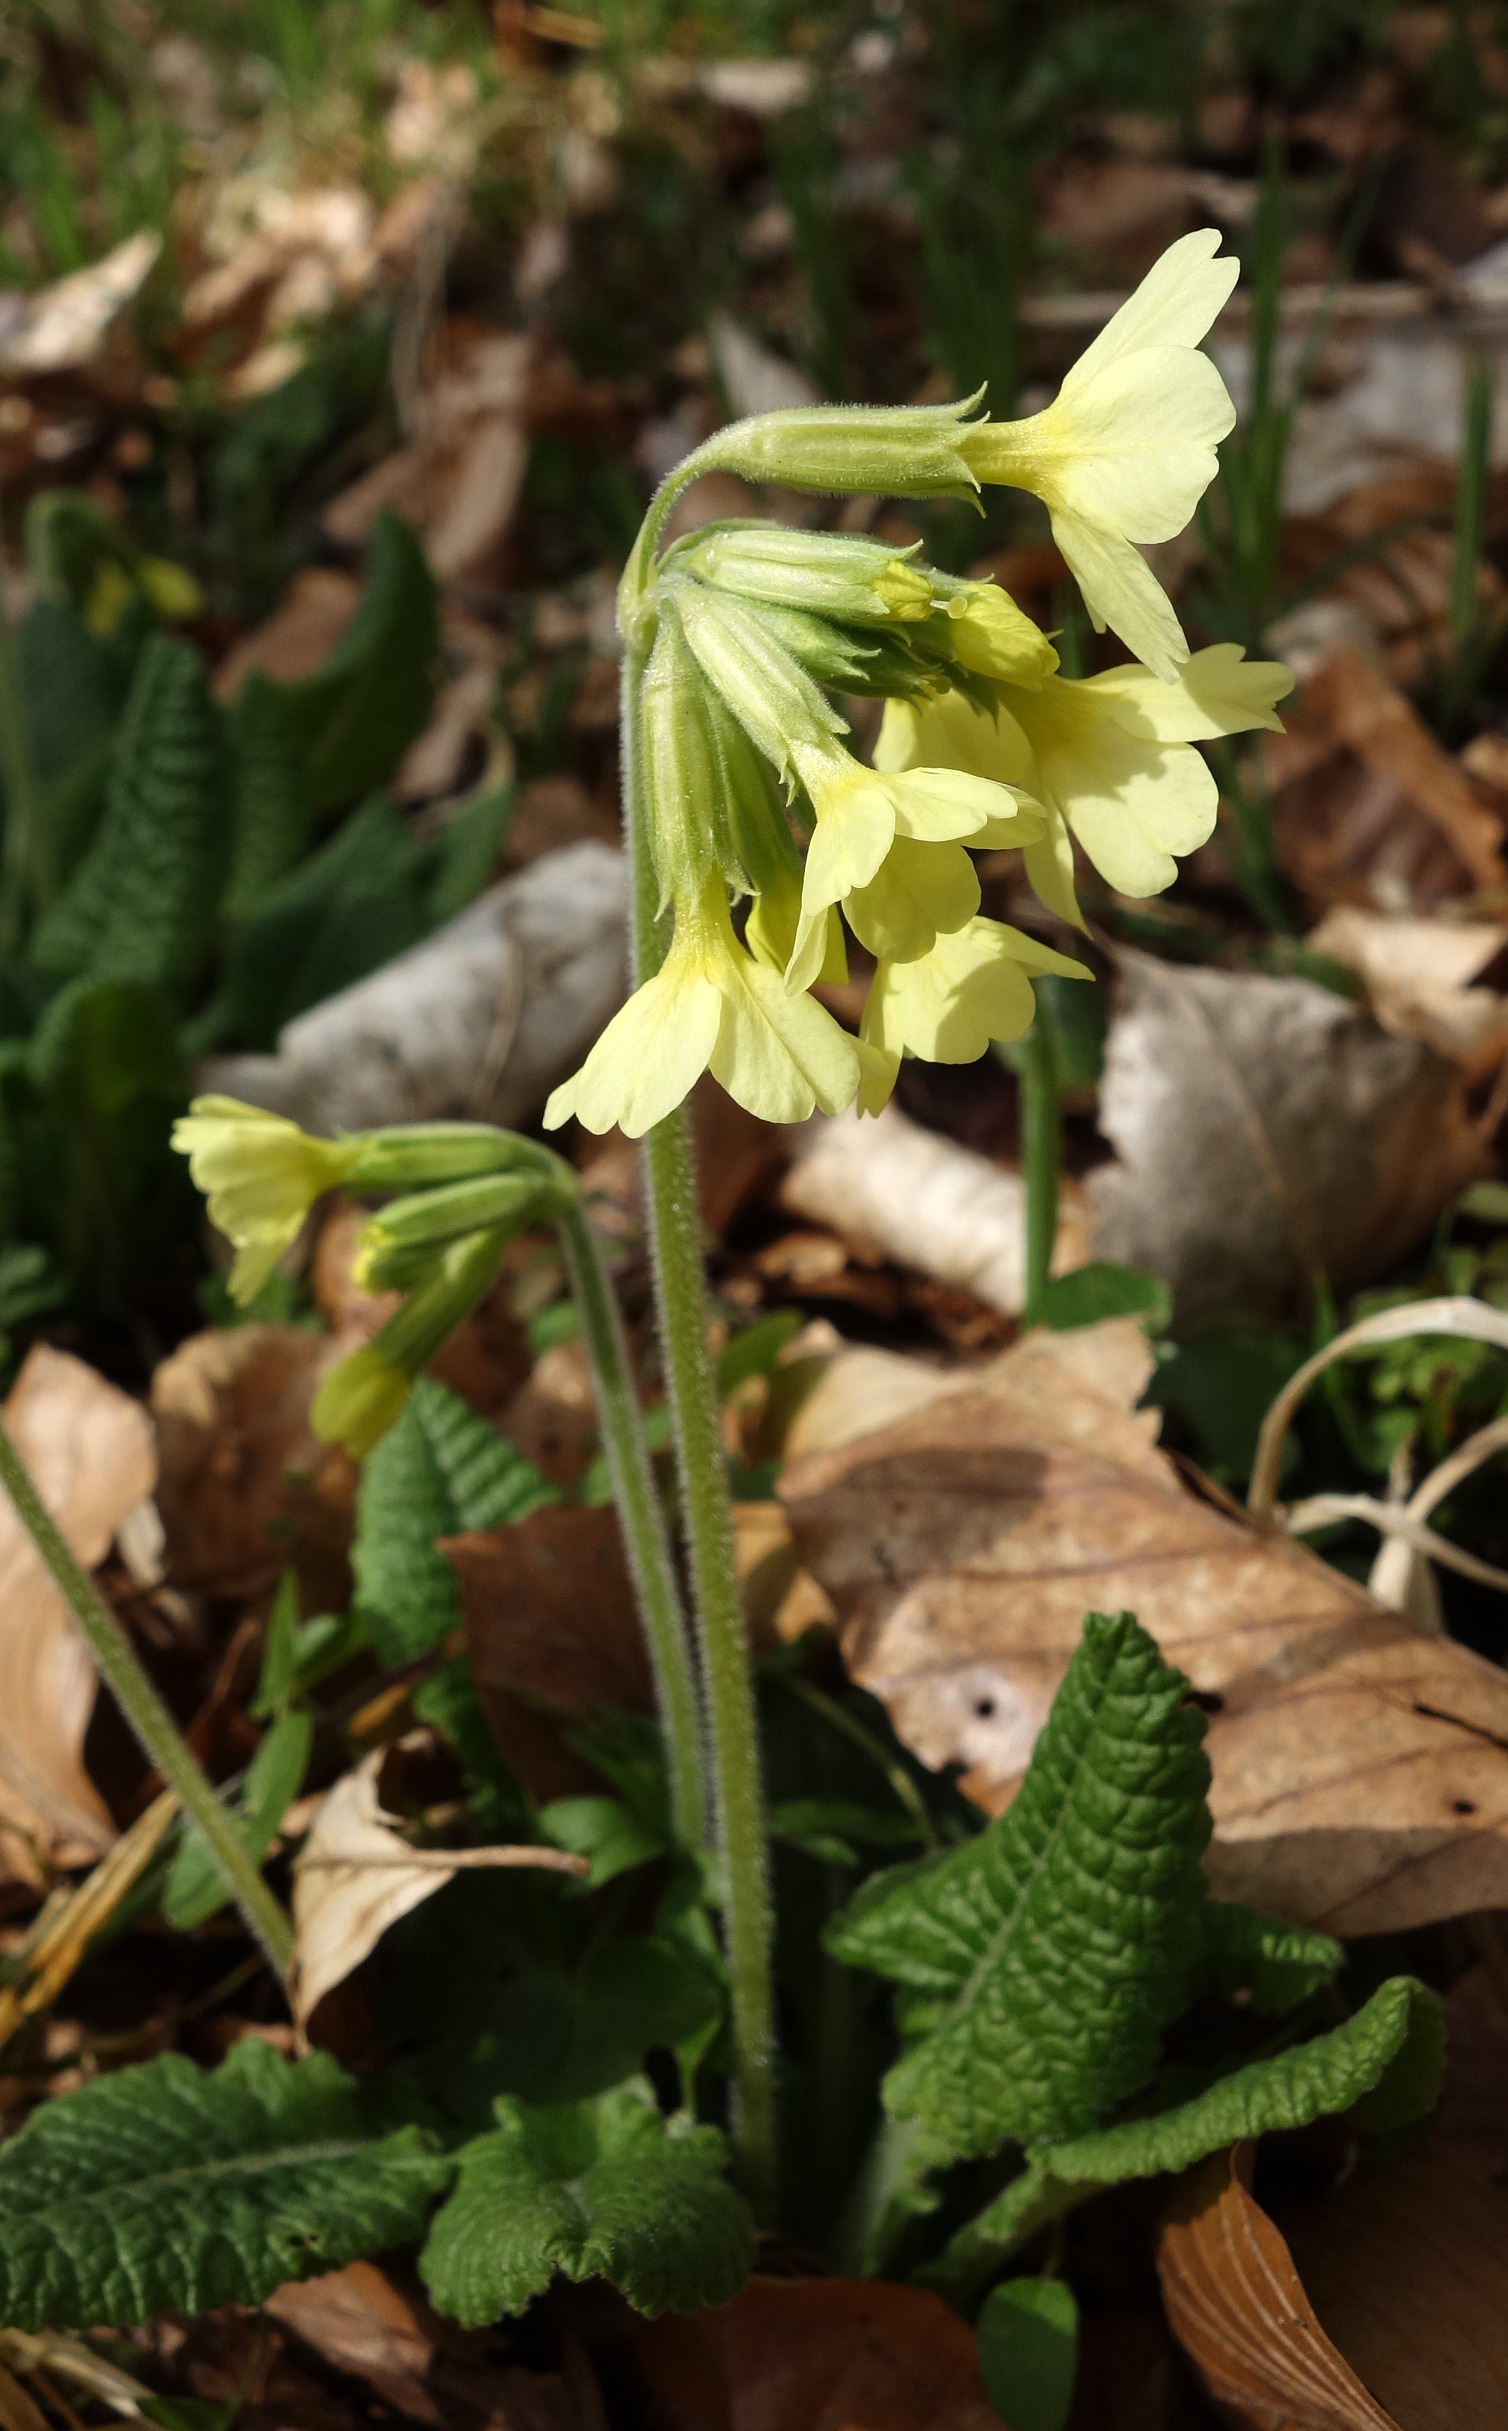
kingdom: Plantae
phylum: Tracheophyta
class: Magnoliopsida
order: Ericales
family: Primulaceae
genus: Primula
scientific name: Primula elatior
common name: Fladkravet kodriver
